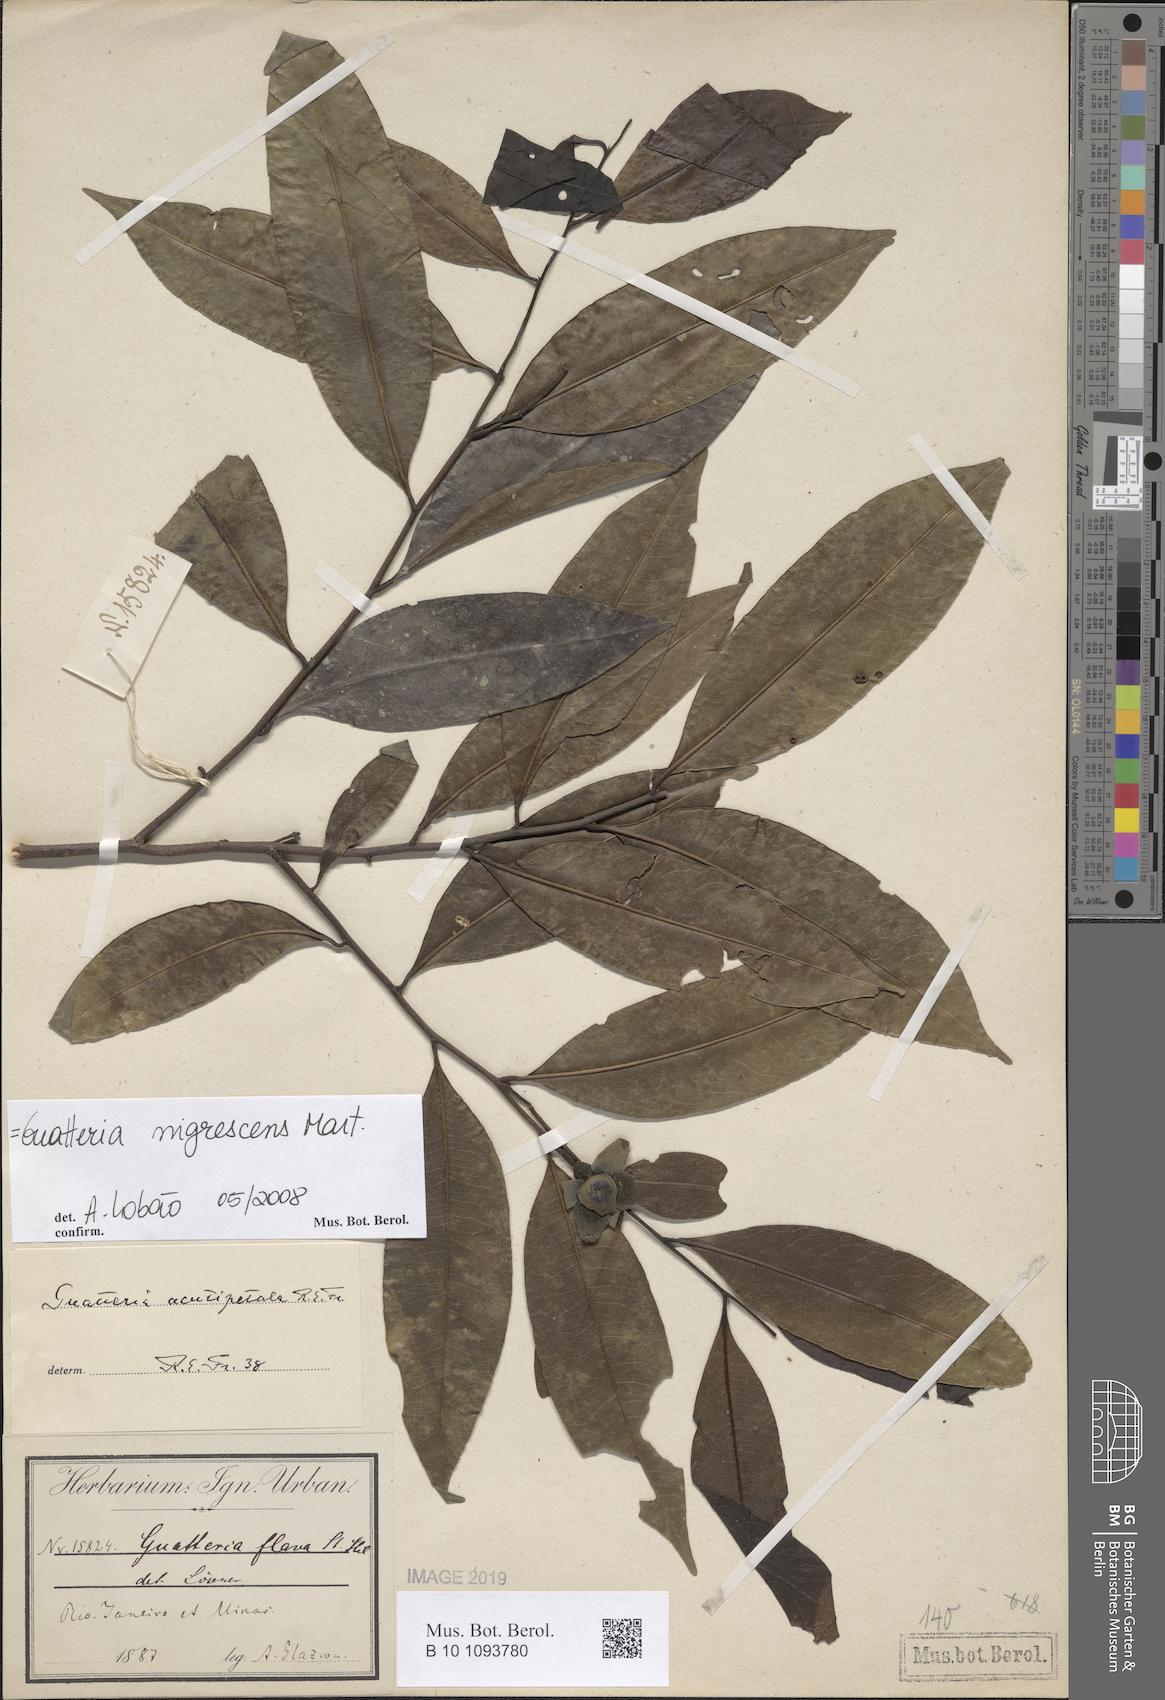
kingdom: Plantae
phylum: Tracheophyta
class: Magnoliopsida
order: Magnoliales
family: Annonaceae
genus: Guatteria
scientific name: Guatteria australis
